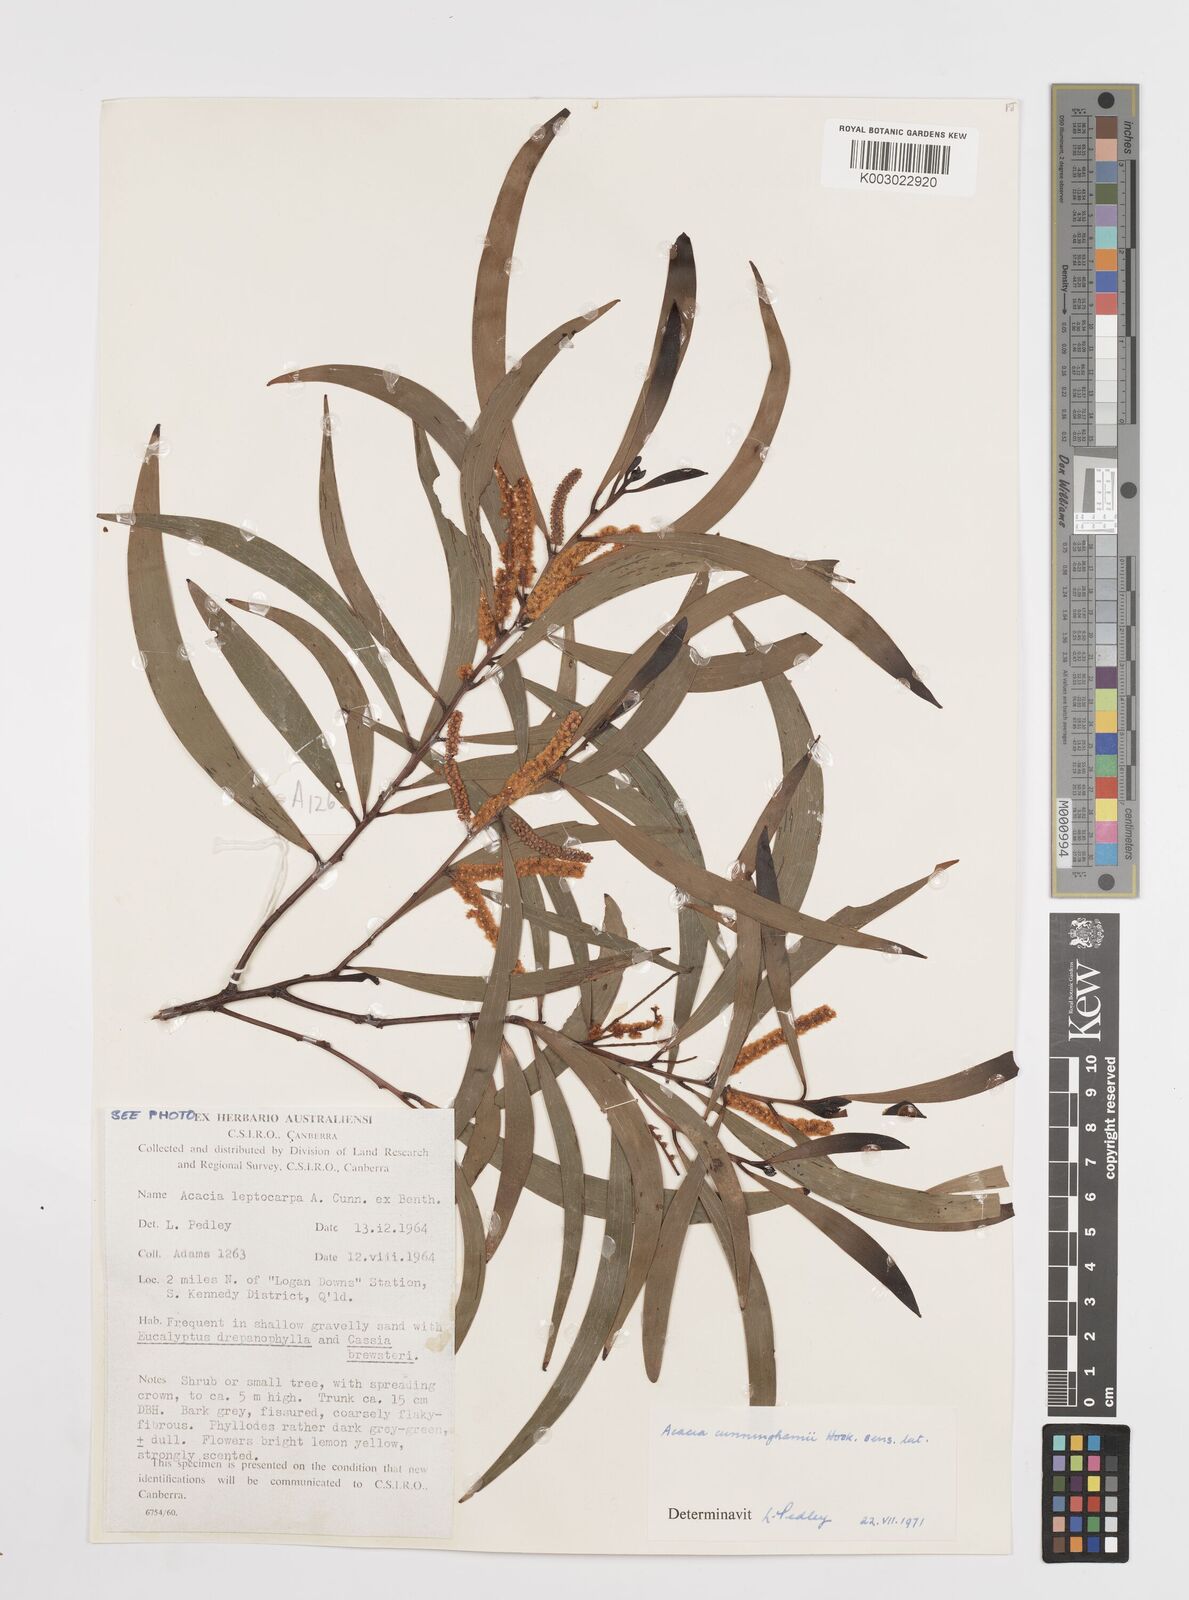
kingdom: Plantae
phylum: Tracheophyta
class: Magnoliopsida
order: Fabales
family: Fabaceae
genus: Acacia
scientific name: Acacia longispicata
